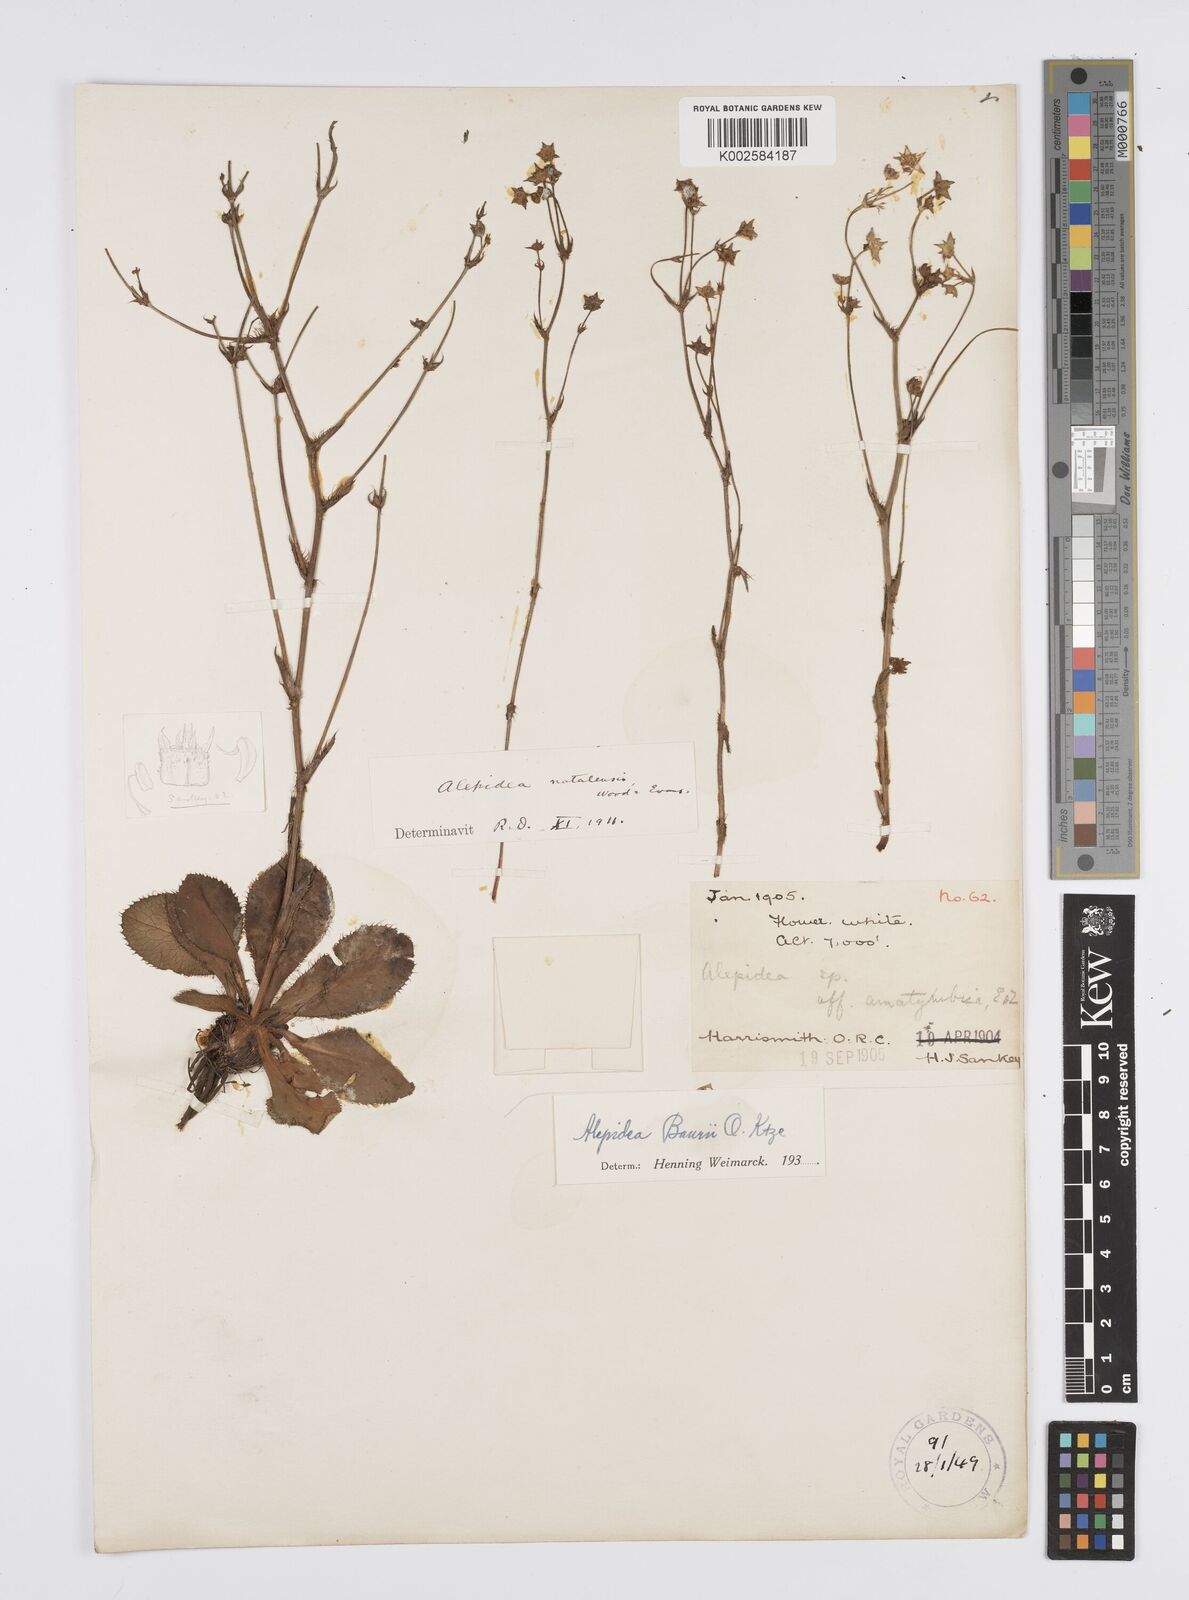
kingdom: Plantae
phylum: Tracheophyta
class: Magnoliopsida
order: Apiales
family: Apiaceae
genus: Alepidea
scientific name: Alepidea natalensis
